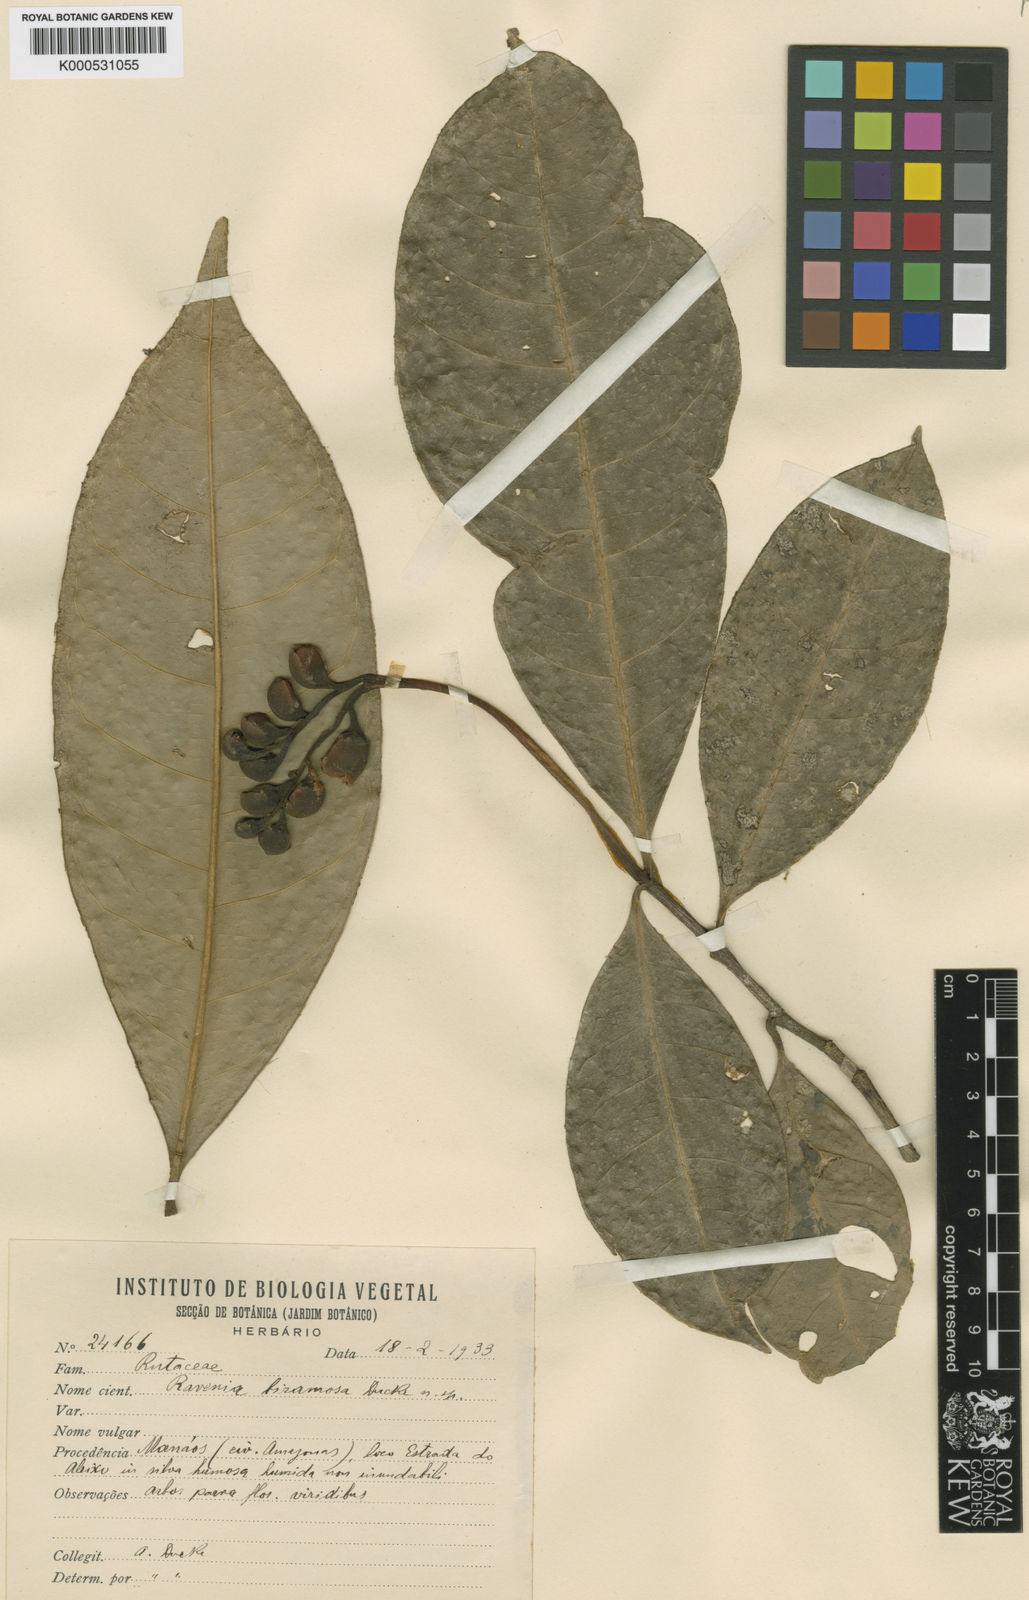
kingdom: Plantae
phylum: Tracheophyta
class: Magnoliopsida
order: Sapindales
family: Rutaceae
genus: Ravenia
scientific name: Ravenia biramosa
